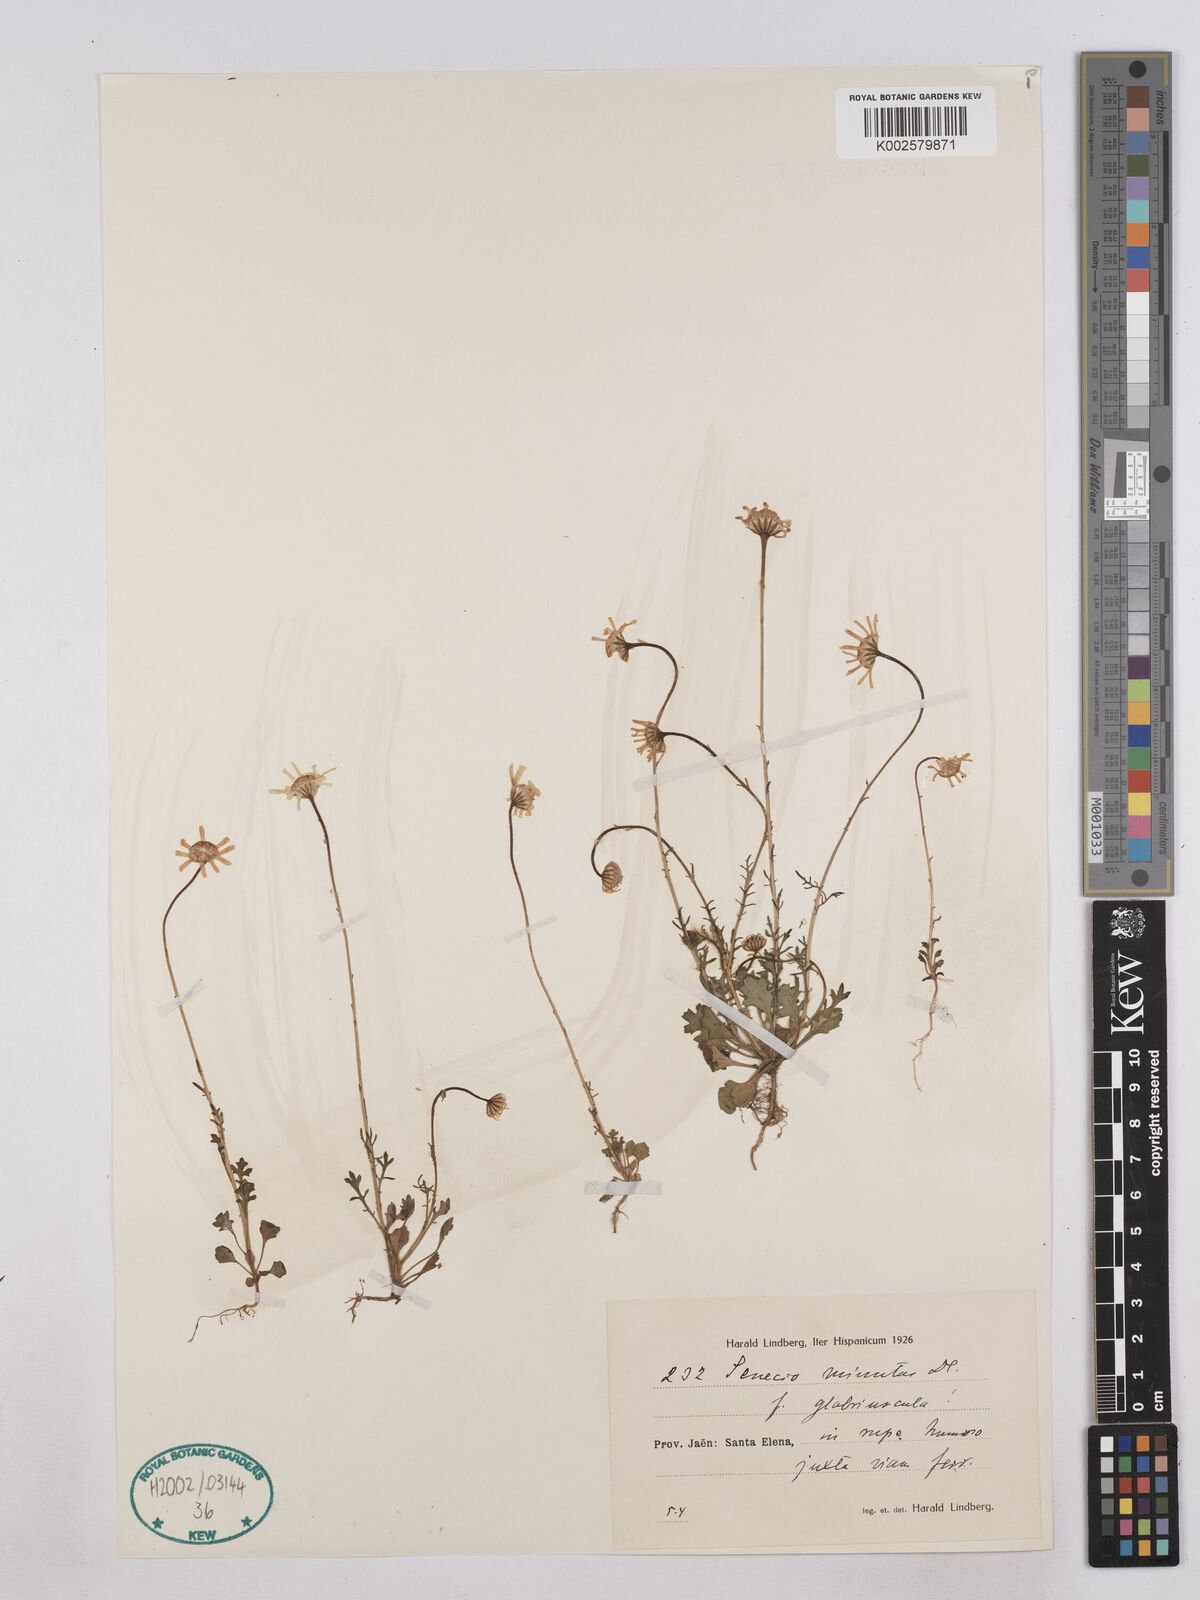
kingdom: Plantae
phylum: Tracheophyta
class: Magnoliopsida
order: Asterales
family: Asteraceae
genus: Jacobaea
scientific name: Jacobaea minuta
